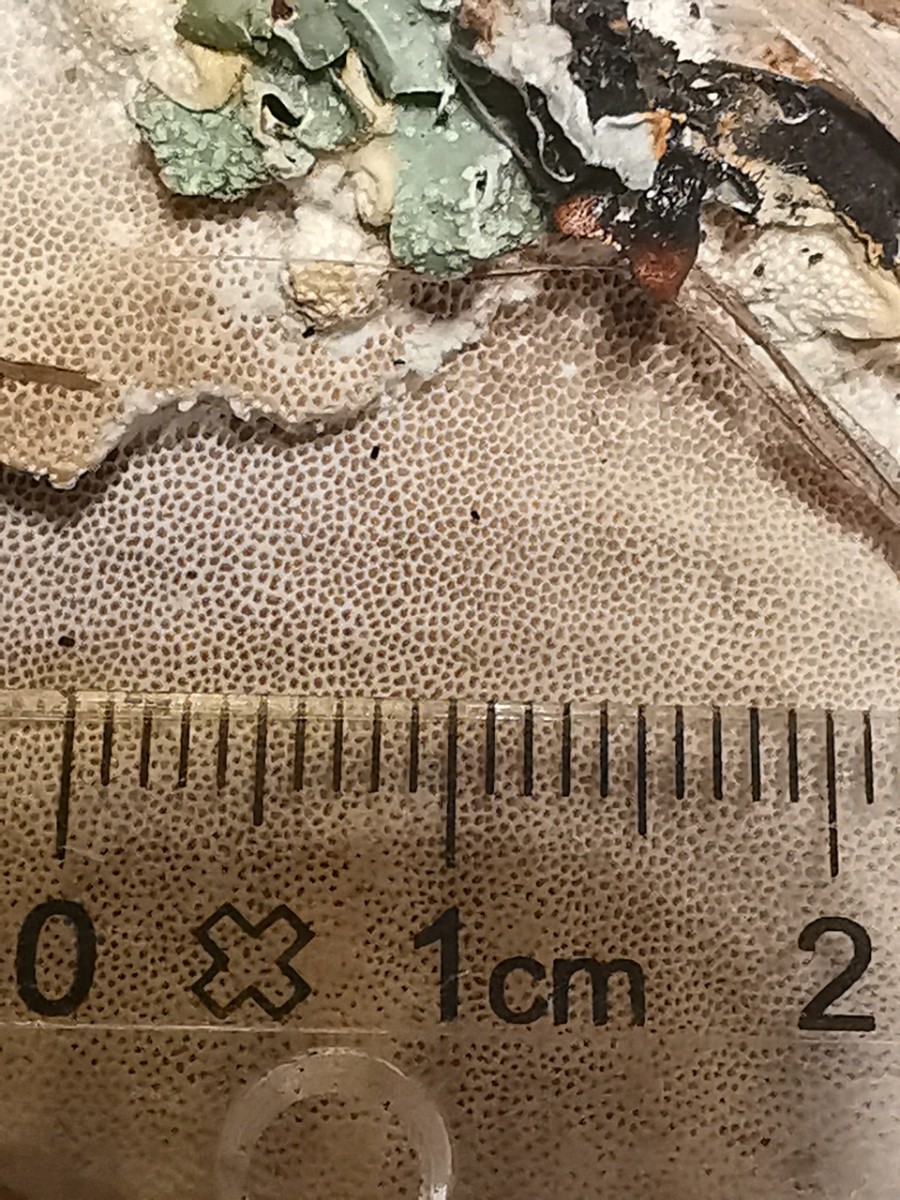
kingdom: Fungi
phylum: Basidiomycota
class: Agaricomycetes
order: Polyporales
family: Polyporaceae
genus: Trametes
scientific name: Trametes hirsuta
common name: håret læderporesvamp
